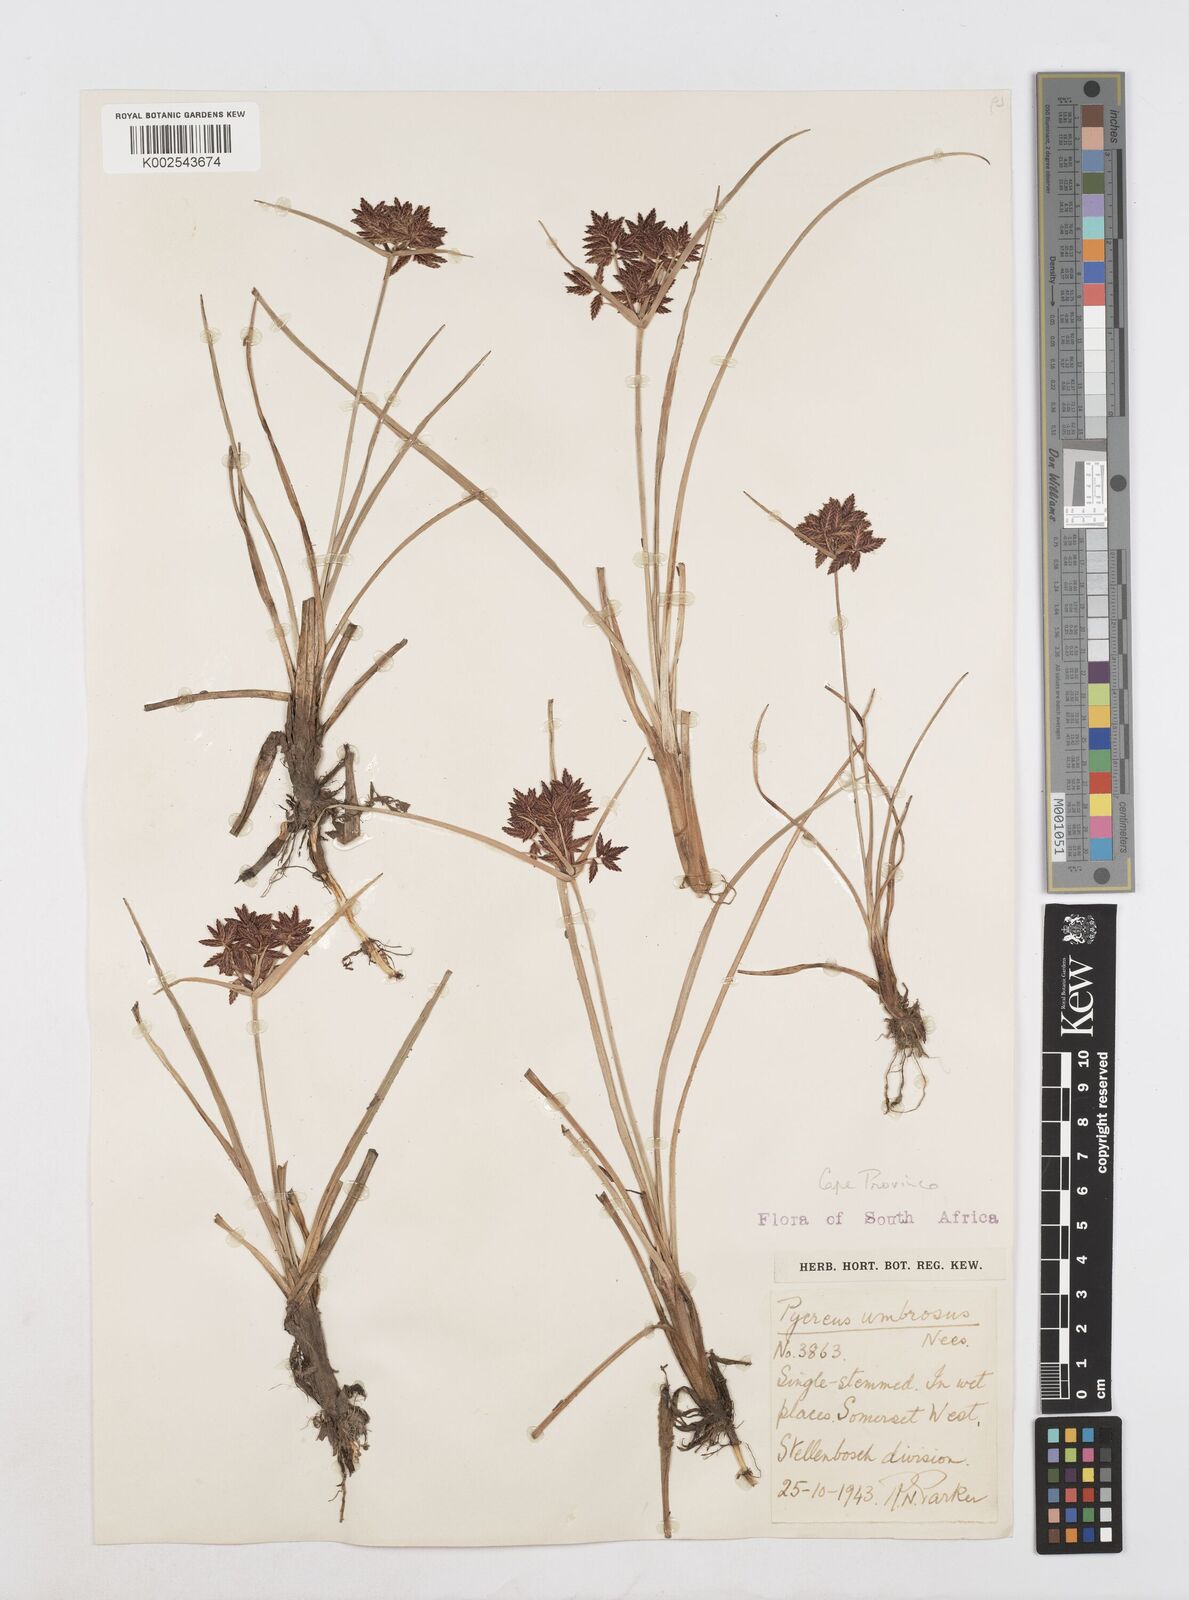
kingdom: Plantae
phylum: Tracheophyta
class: Liliopsida
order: Poales
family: Cyperaceae
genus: Cyperus
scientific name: Cyperus nitidus
